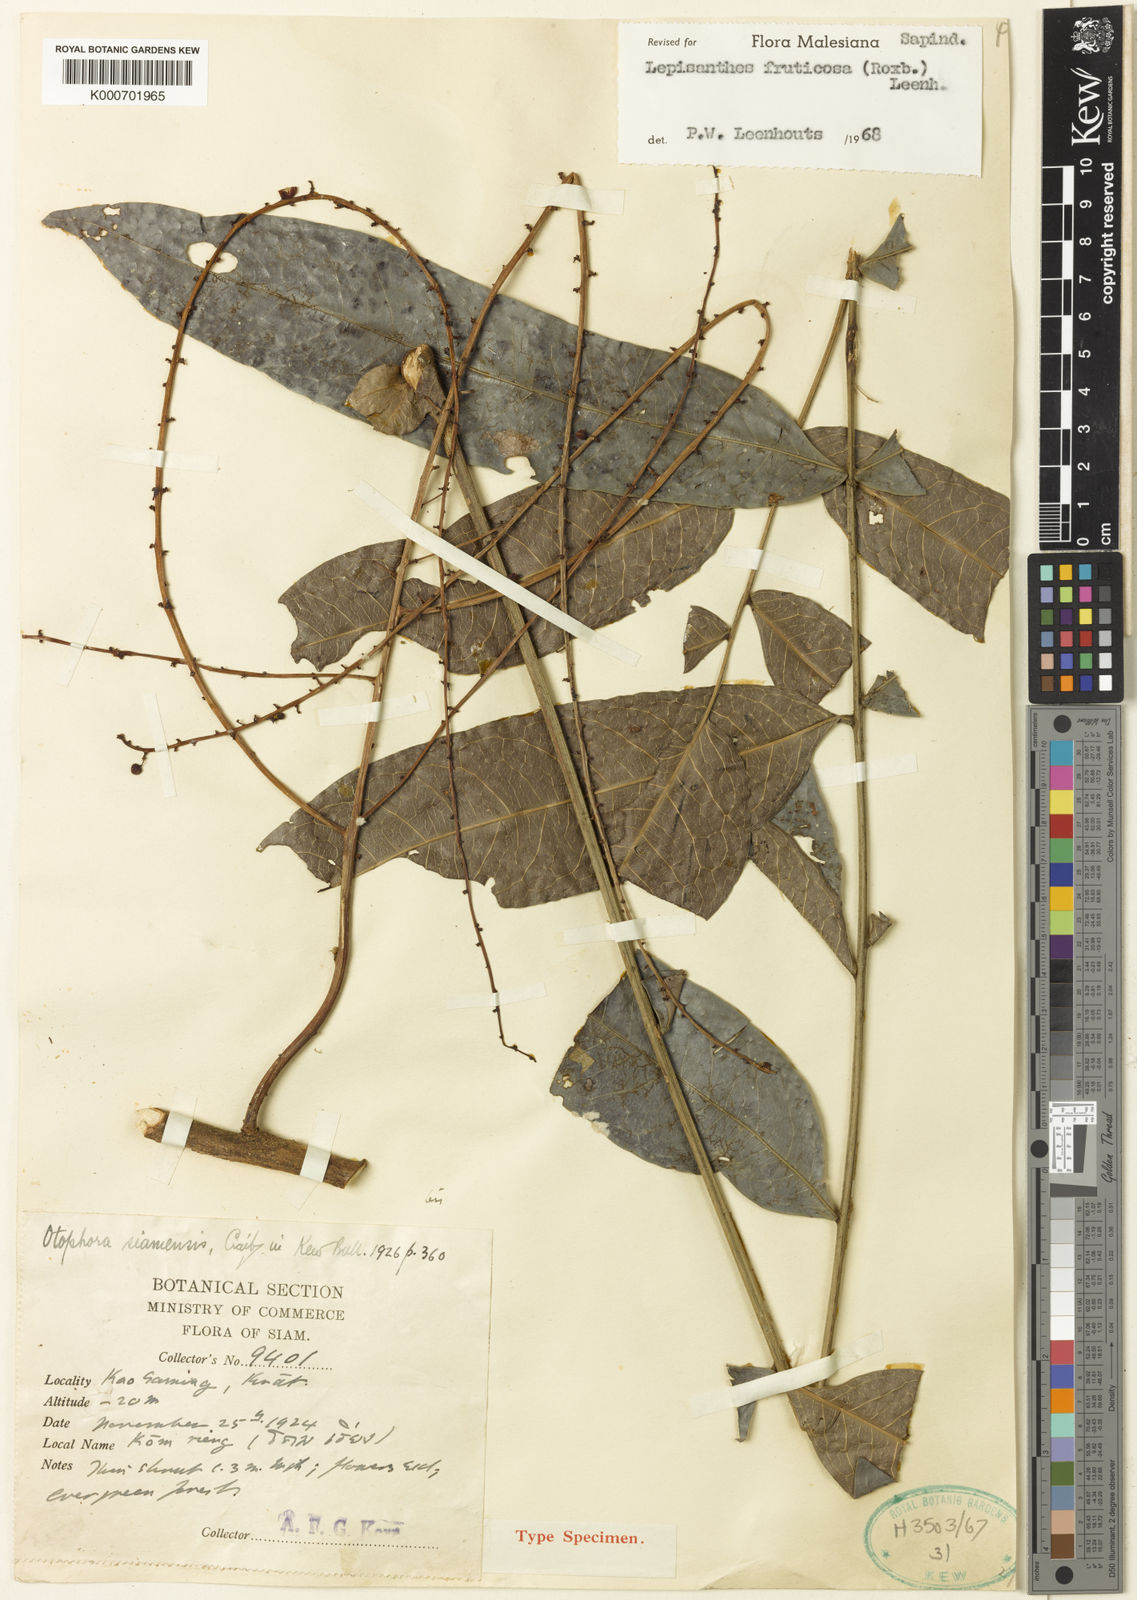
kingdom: Plantae
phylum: Tracheophyta
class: Magnoliopsida
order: Sapindales
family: Sapindaceae
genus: Lepisanthes
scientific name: Lepisanthes fruticosa
